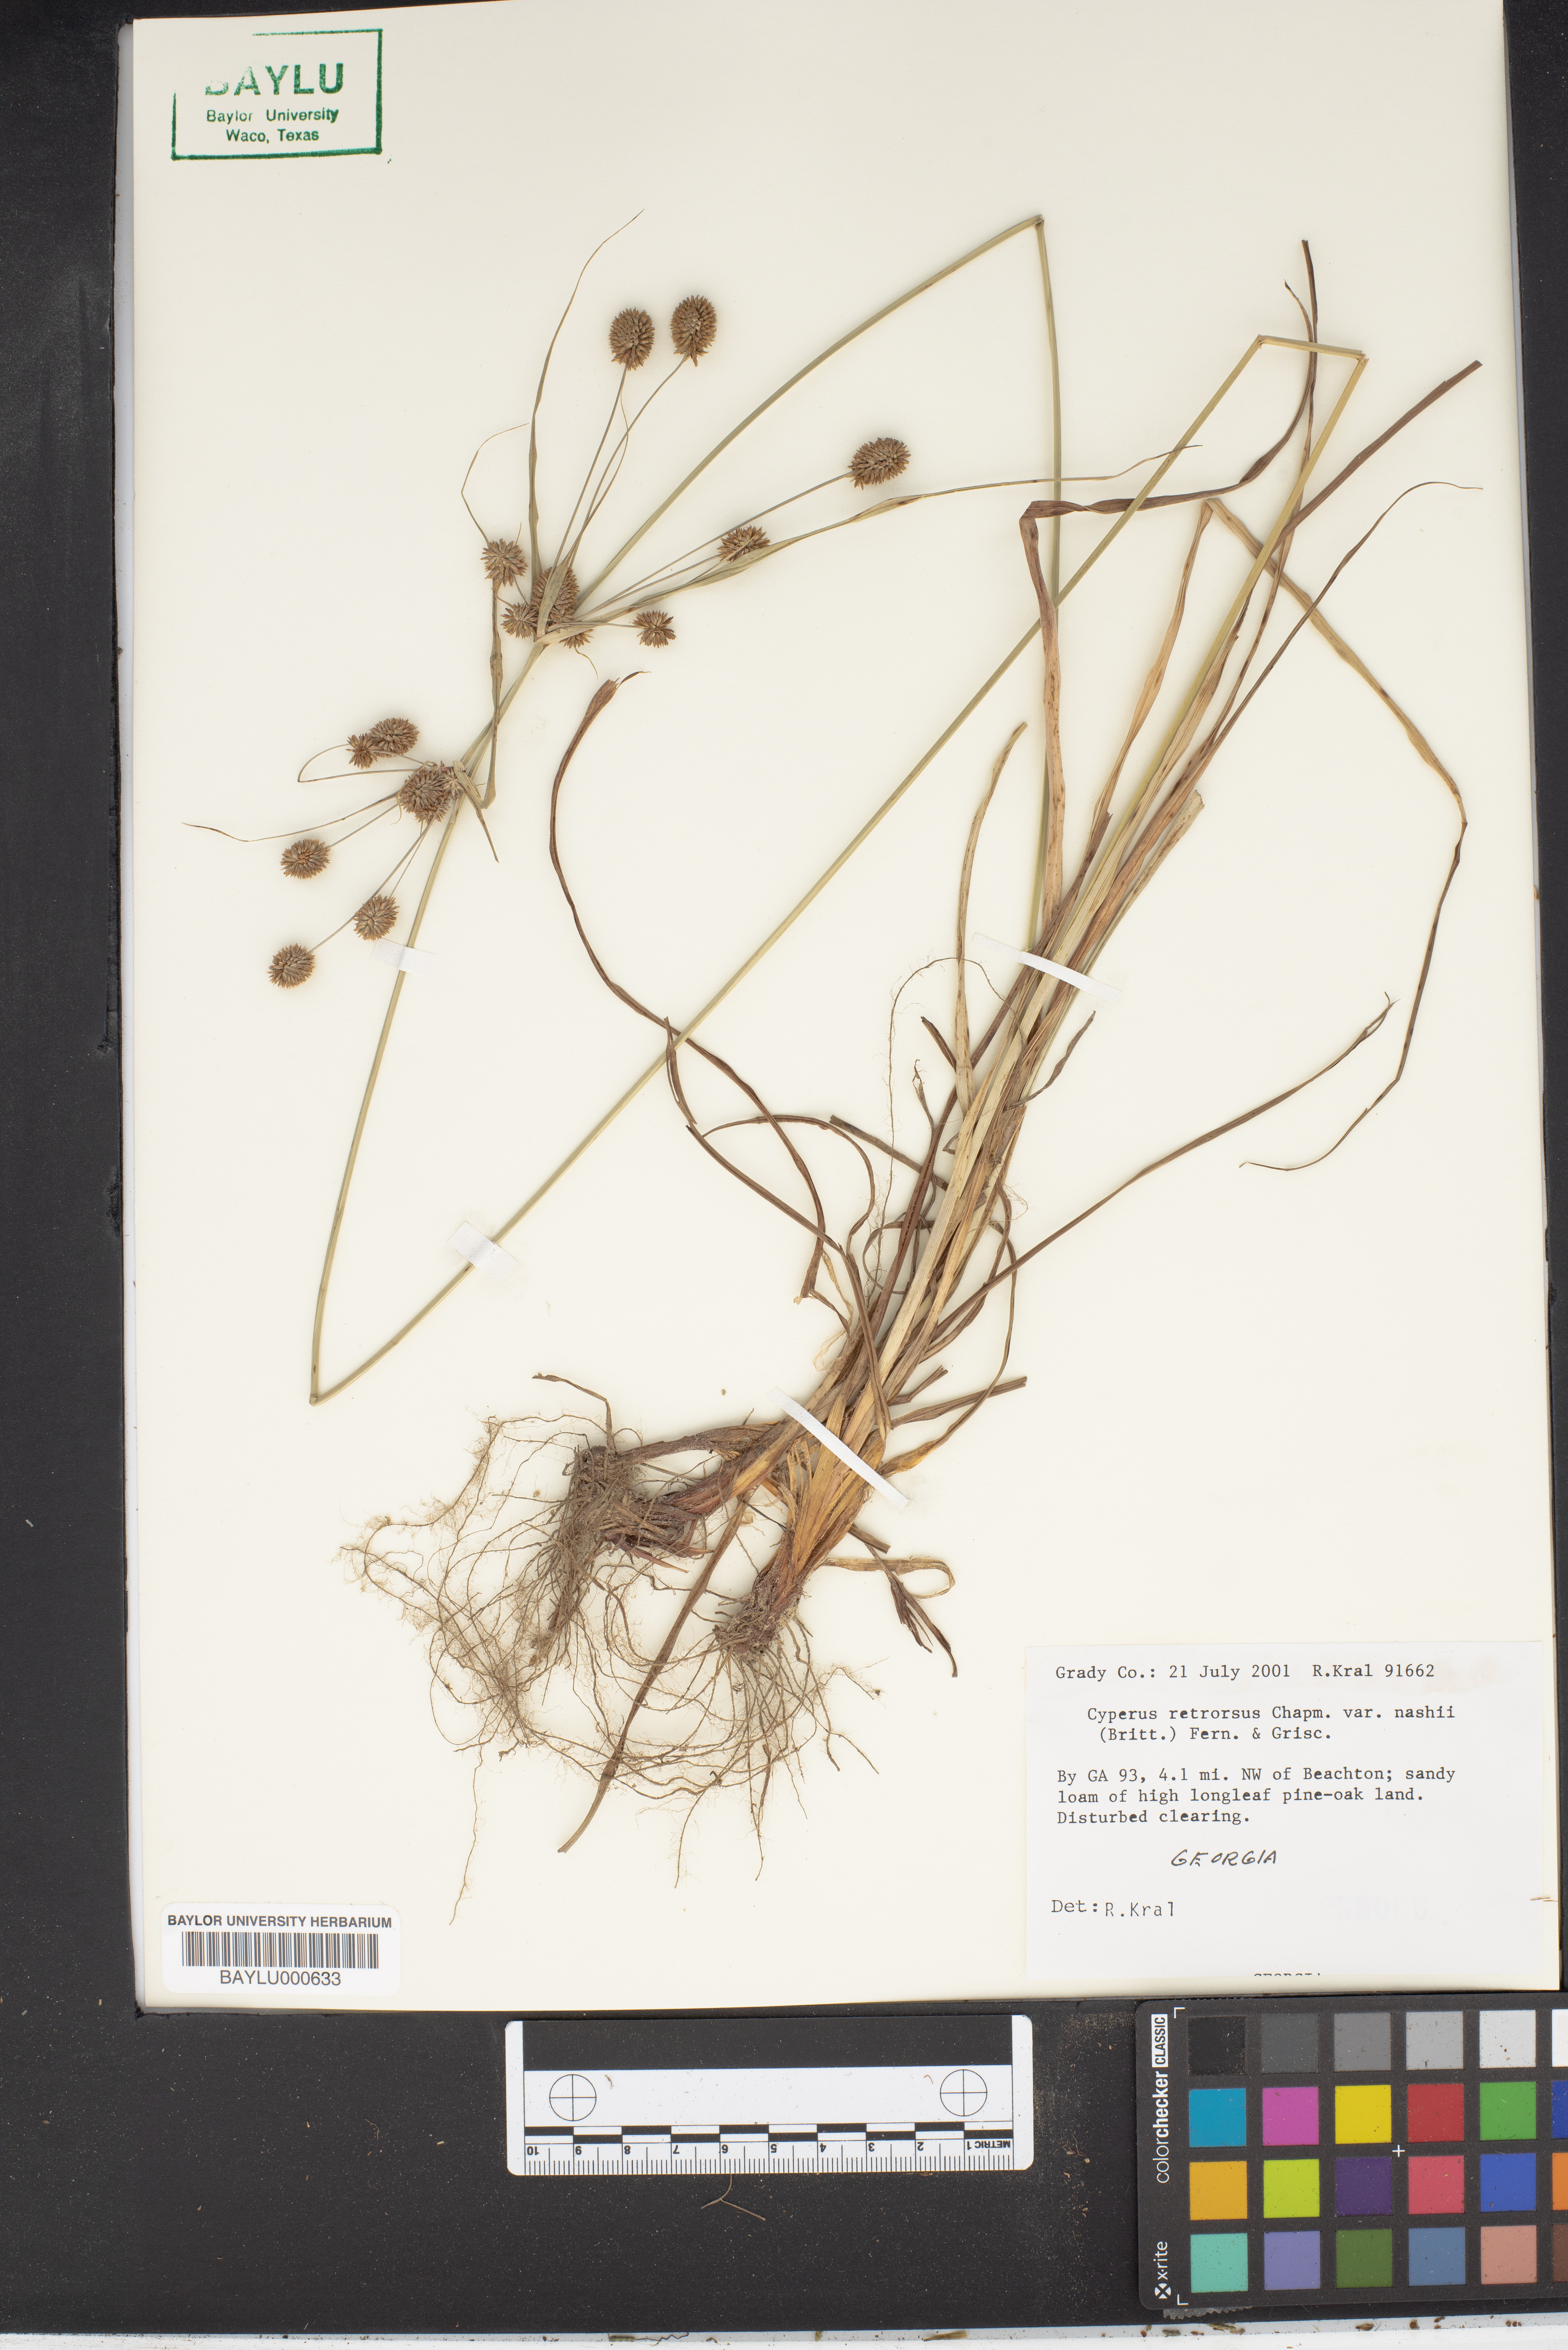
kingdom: Plantae
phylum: Tracheophyta
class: Liliopsida
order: Poales
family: Cyperaceae
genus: Cyperus
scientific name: Cyperus retrorsus
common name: Pinebarren flat sedge
